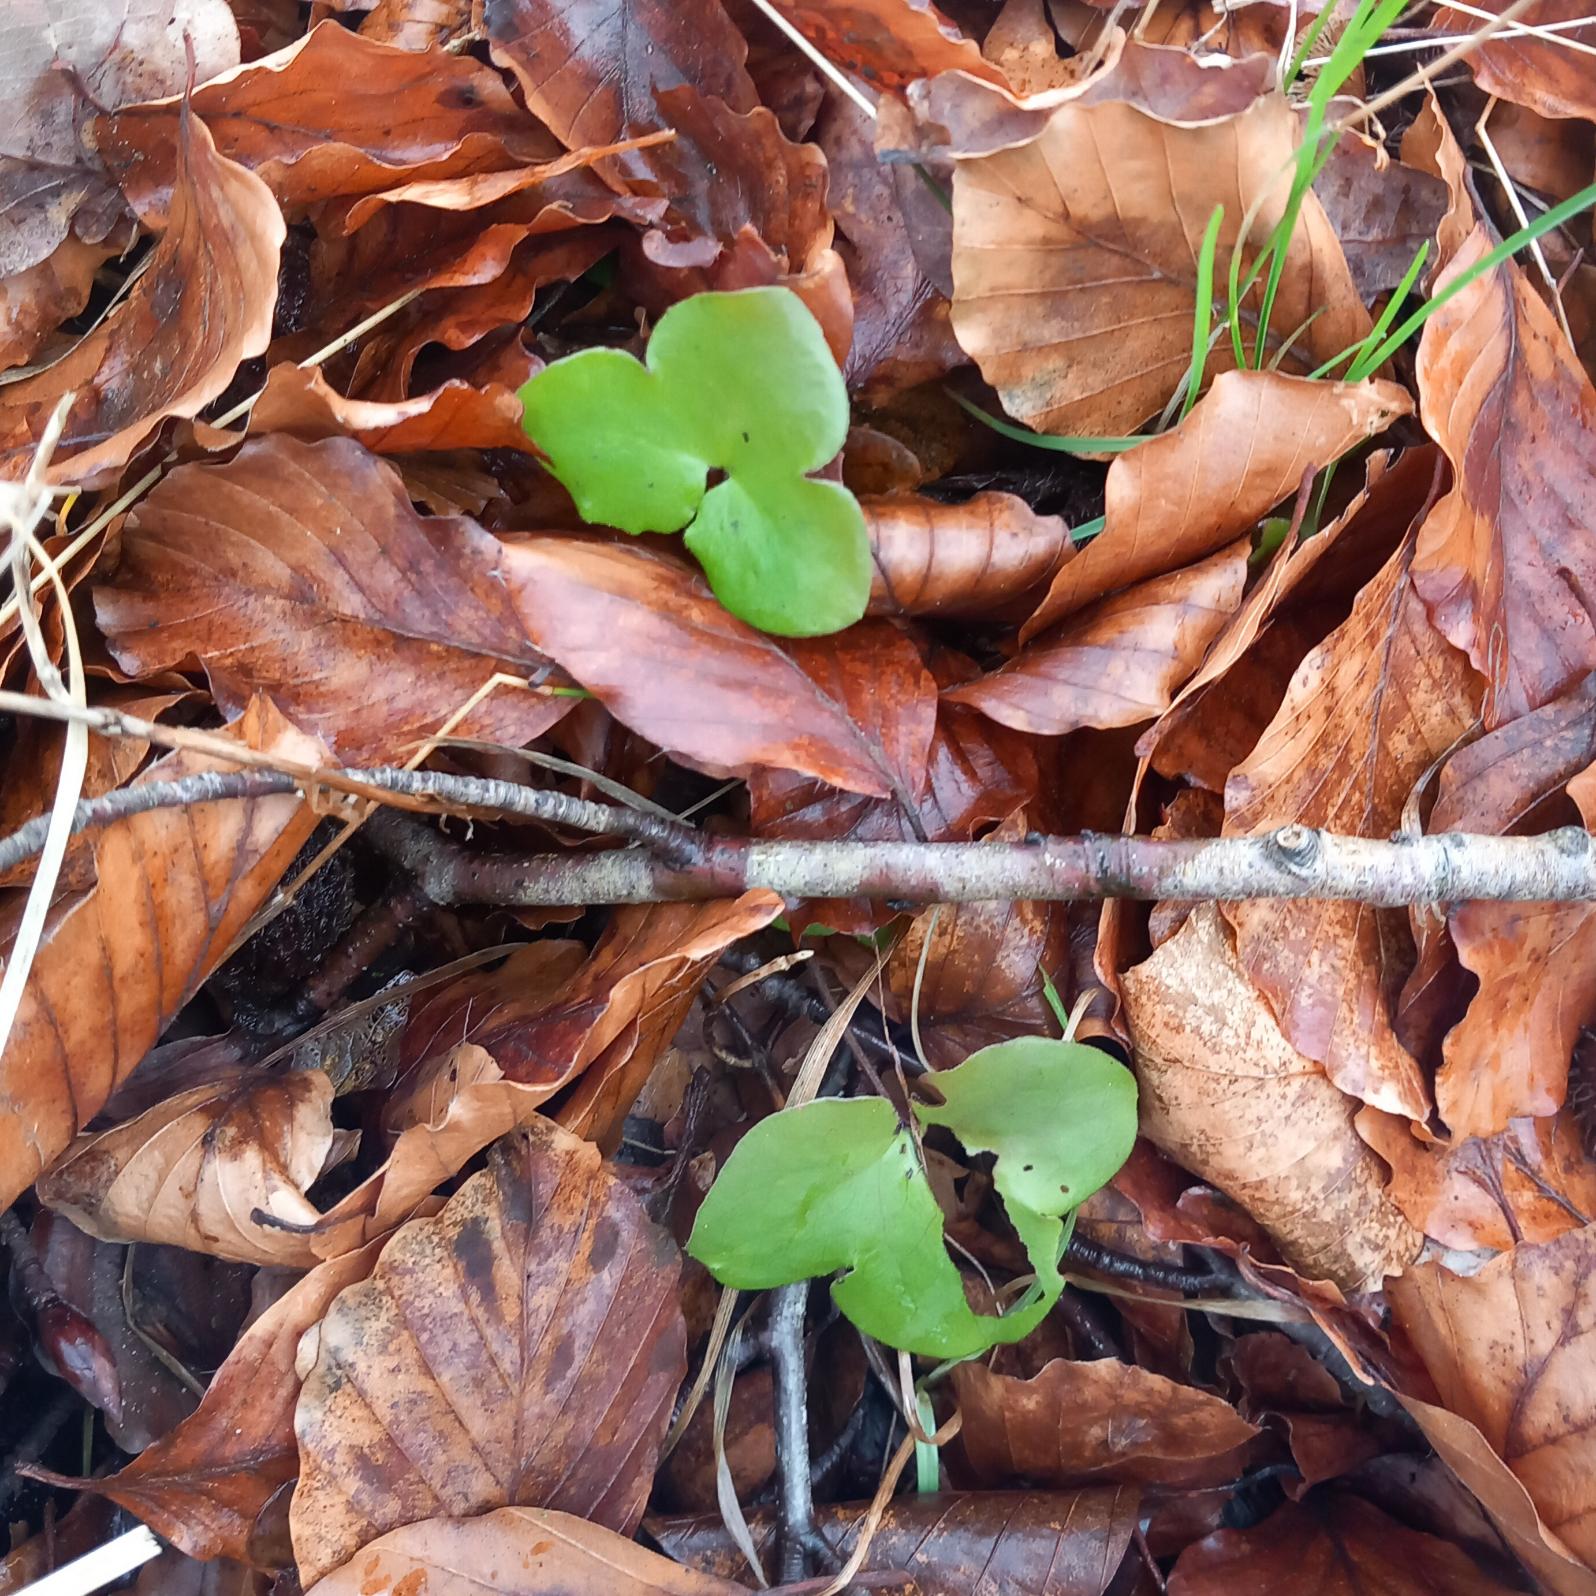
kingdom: Plantae
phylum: Tracheophyta
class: Magnoliopsida
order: Ranunculales
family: Ranunculaceae
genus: Hepatica
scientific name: Hepatica nobilis
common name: Blå anemone
